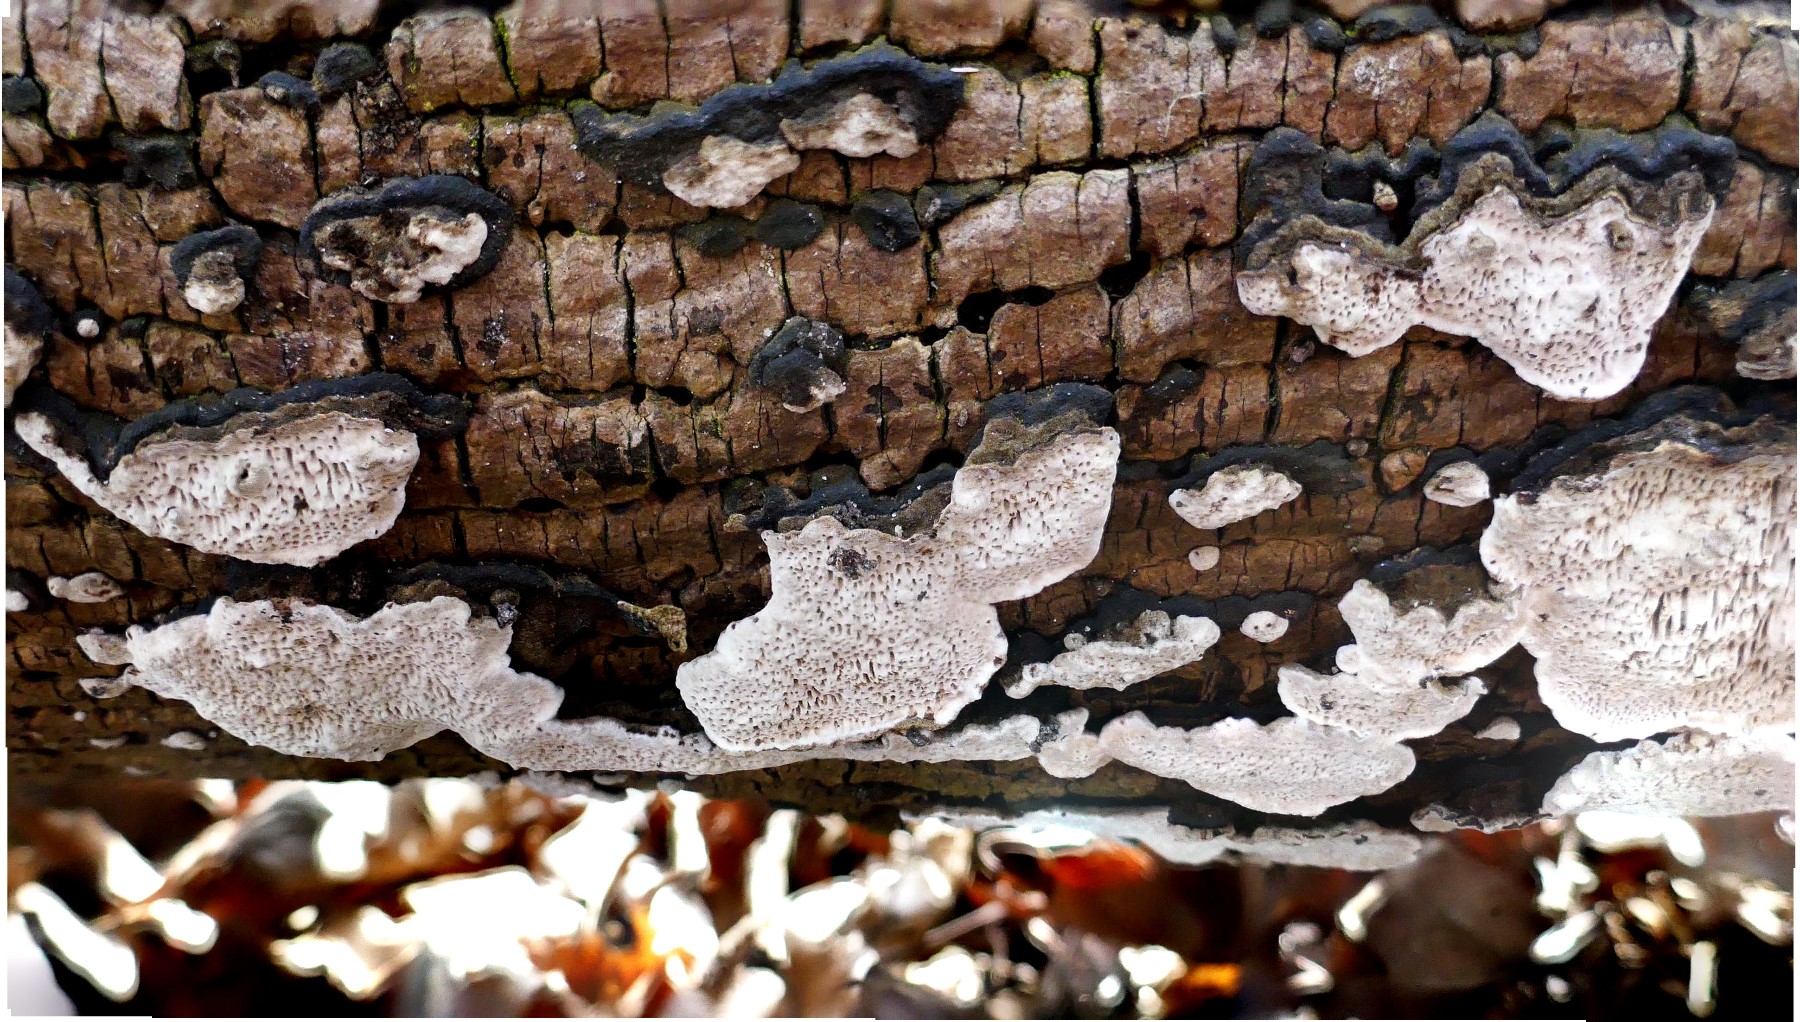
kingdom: Fungi
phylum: Basidiomycota
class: Agaricomycetes
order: Polyporales
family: Polyporaceae
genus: Podofomes
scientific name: Podofomes mollis
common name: blød begporesvamp
